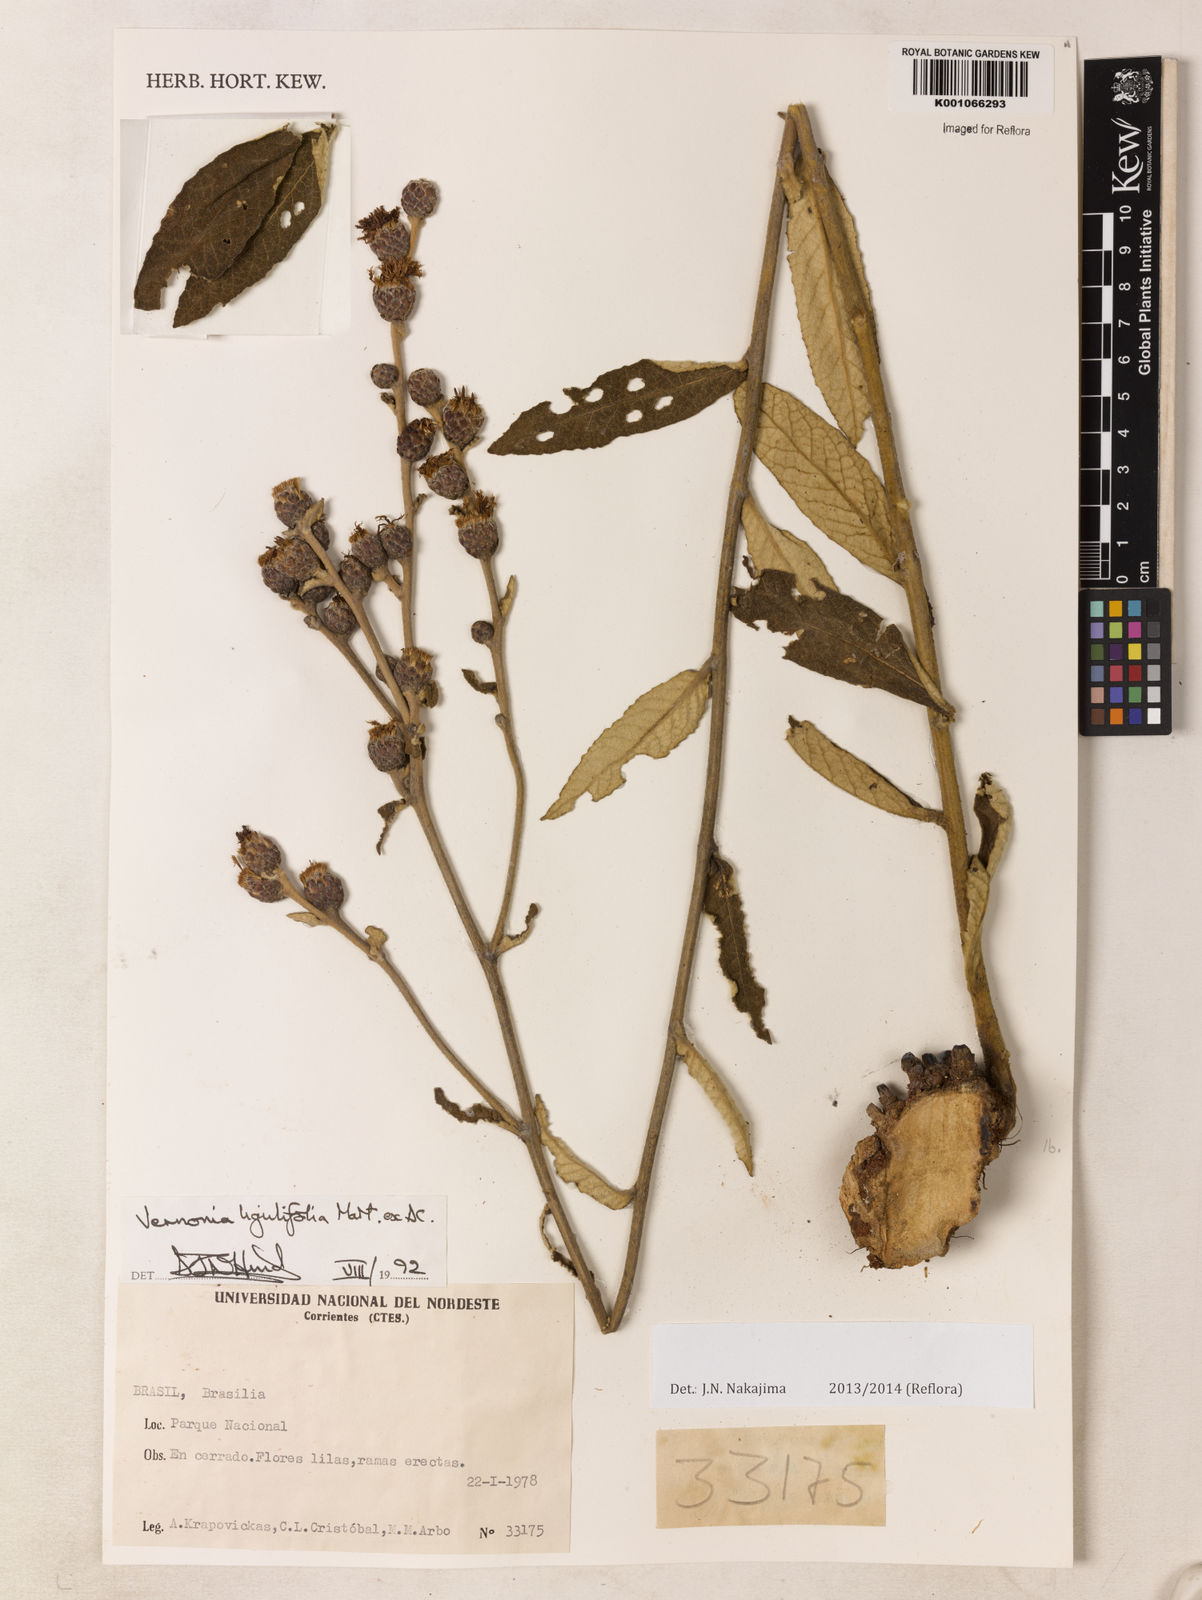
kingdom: Plantae
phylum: Tracheophyta
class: Magnoliopsida
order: Asterales
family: Asteraceae
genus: Lessingianthus
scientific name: Lessingianthus lanuginosus
